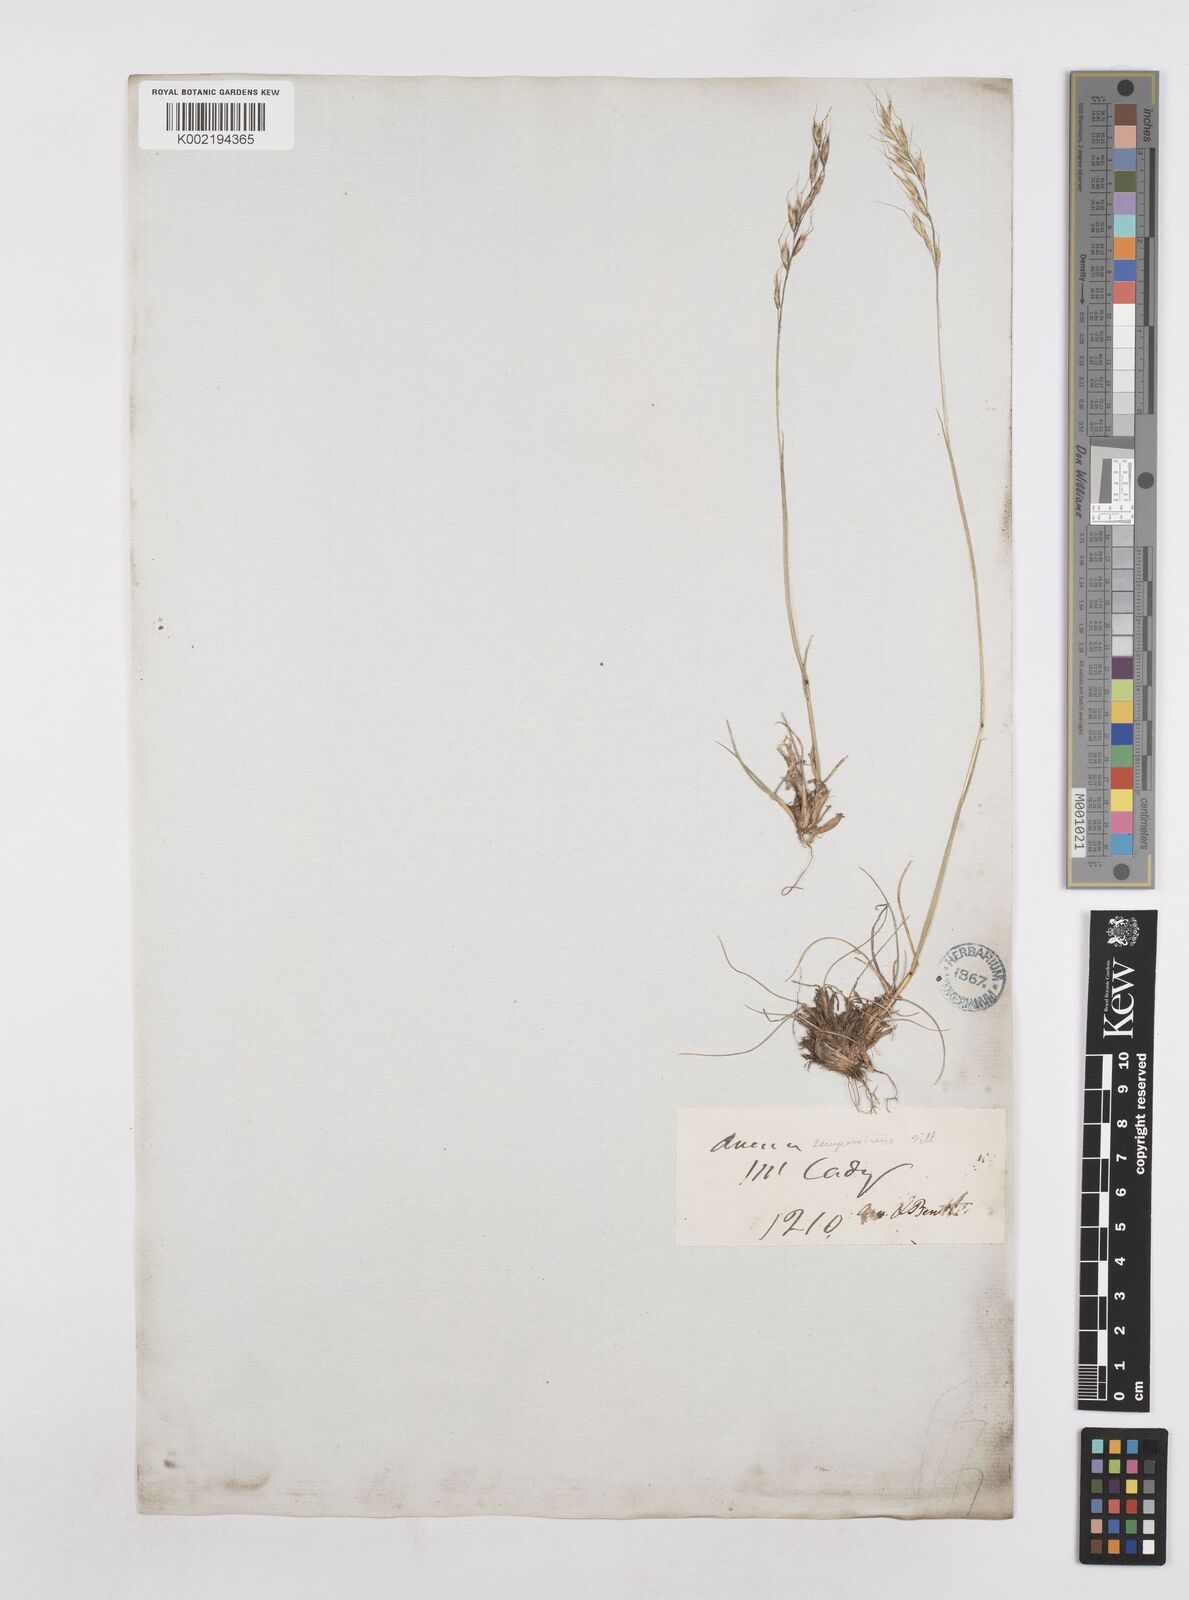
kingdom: Plantae
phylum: Tracheophyta
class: Liliopsida
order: Poales
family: Poaceae
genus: Helictotrichon
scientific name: Helictotrichon parlatorei
